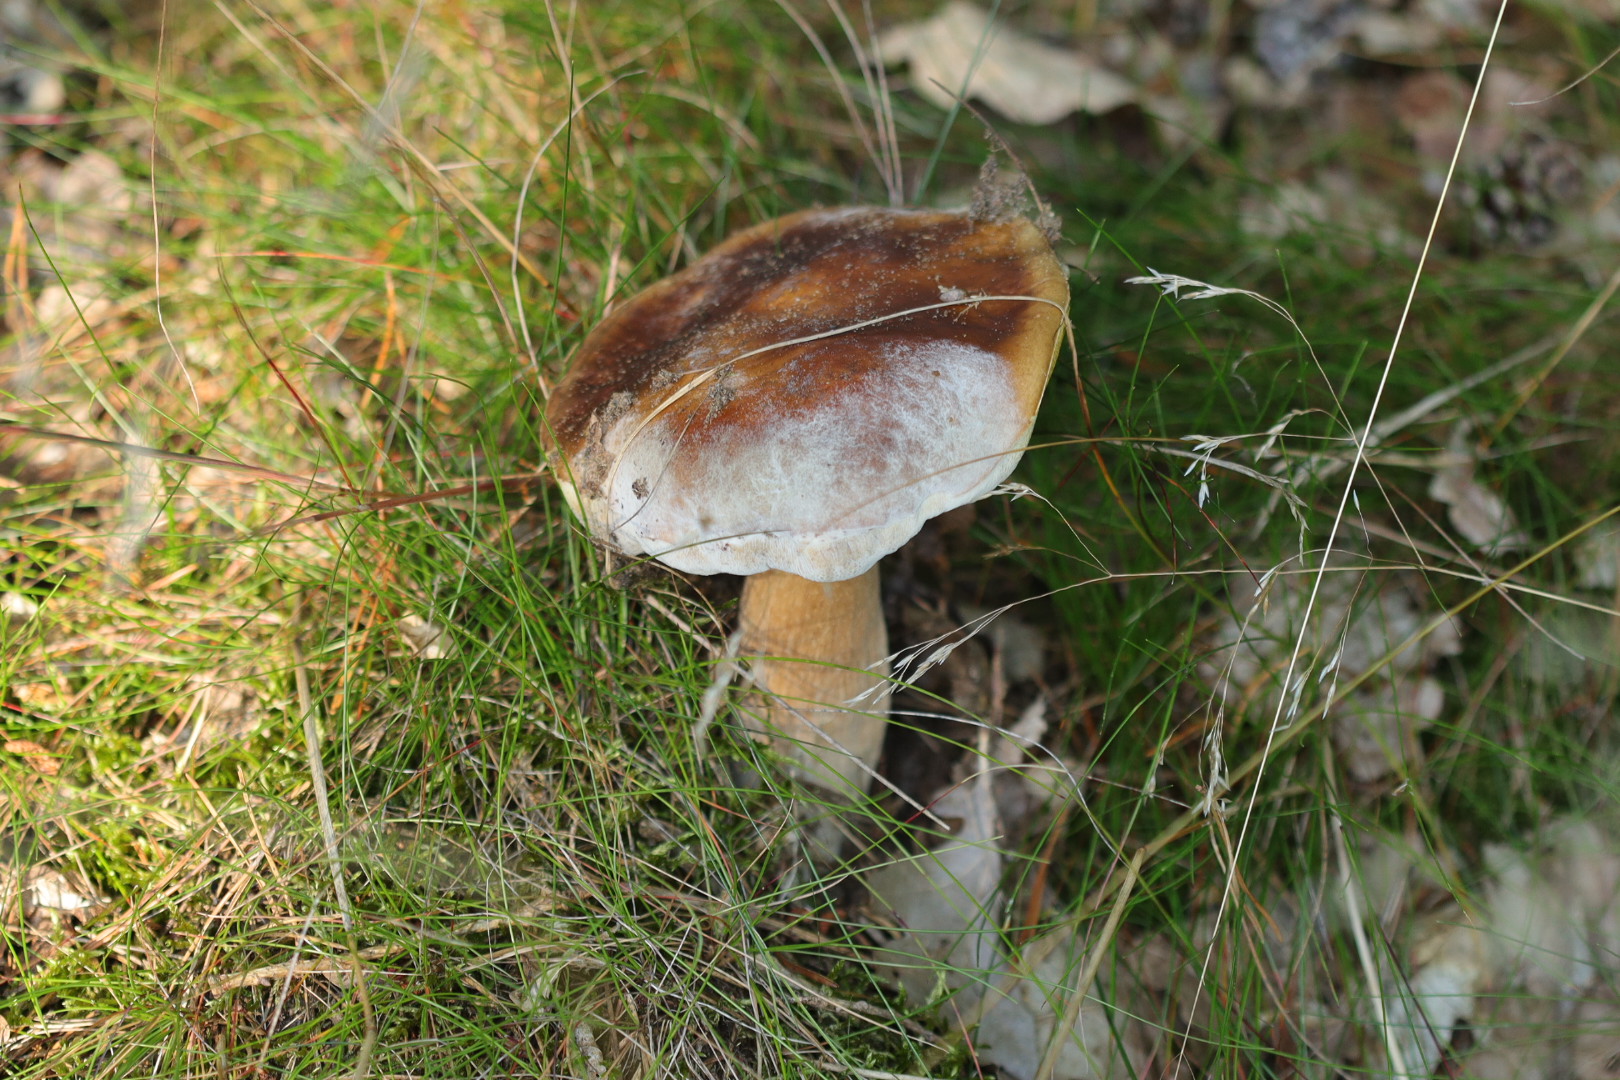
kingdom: Fungi
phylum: Basidiomycota
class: Agaricomycetes
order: Boletales
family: Boletaceae
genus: Boletus
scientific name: Boletus edulis
